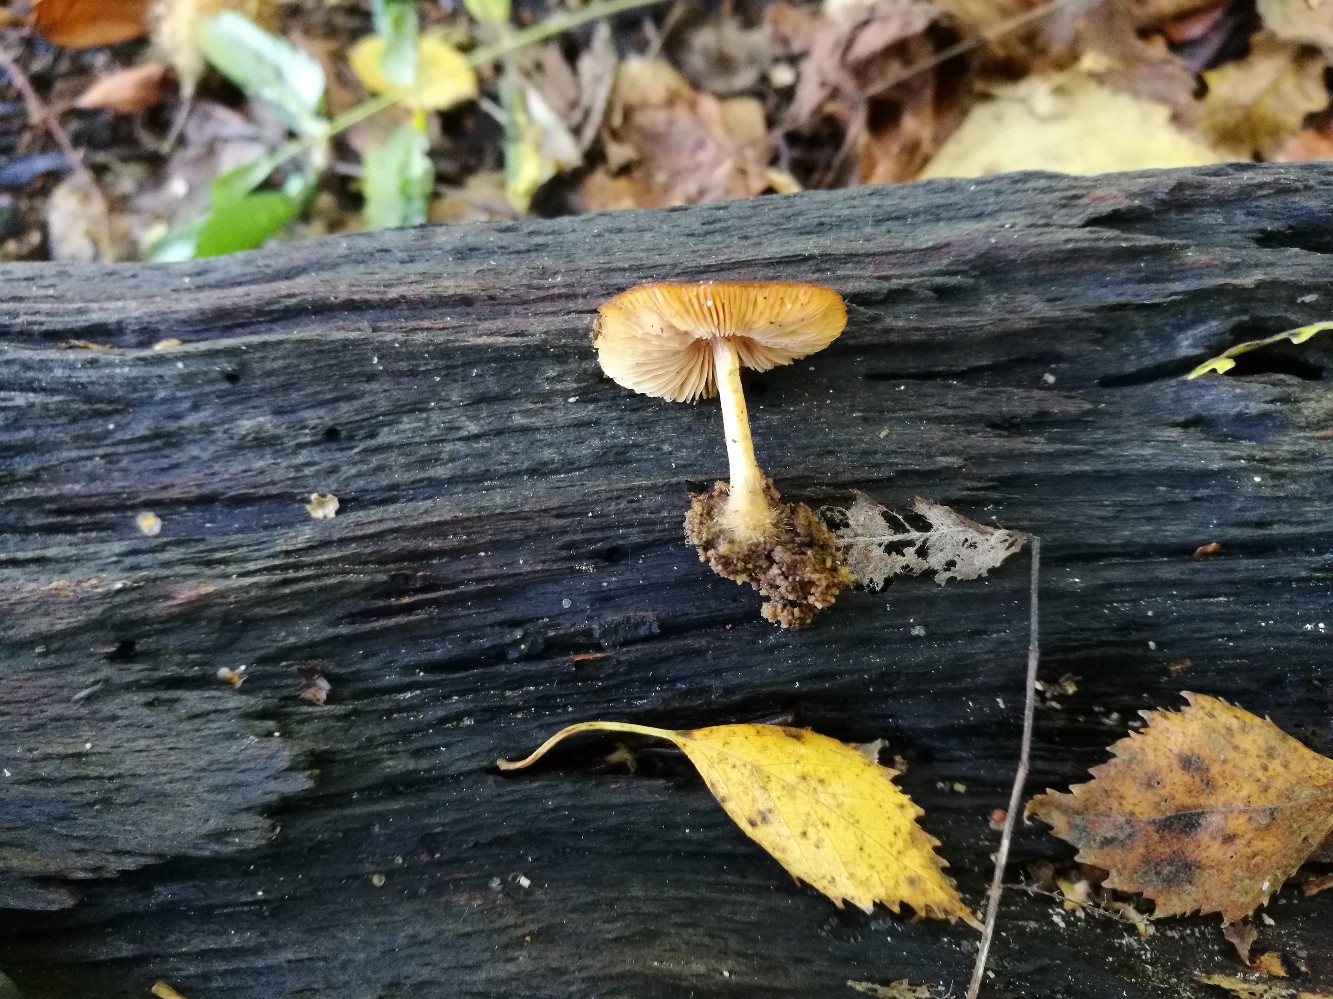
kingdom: Fungi
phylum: Basidiomycota
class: Agaricomycetes
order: Agaricales
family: Pluteaceae
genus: Pluteus
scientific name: Pluteus phlebophorus
